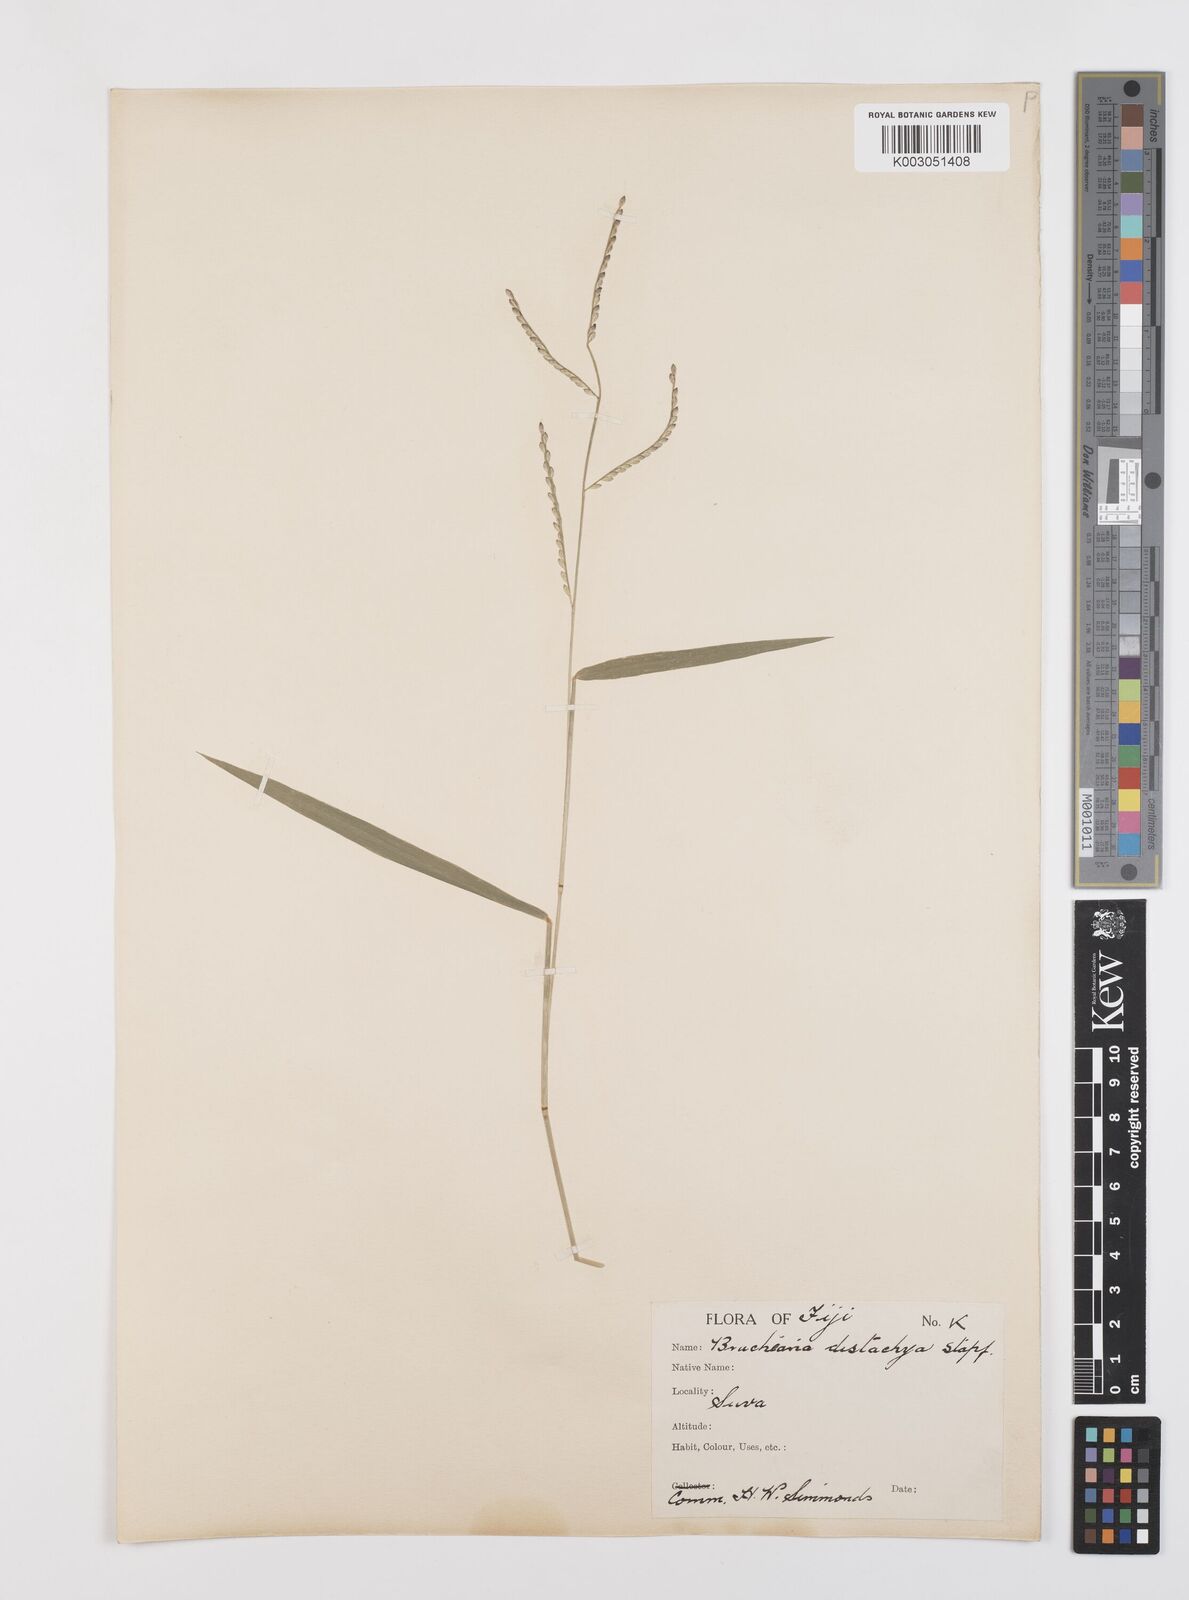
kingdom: Plantae
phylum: Tracheophyta
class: Liliopsida
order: Poales
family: Poaceae
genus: Urochloa
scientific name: Urochloa subquadripara
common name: Armgrass millet
